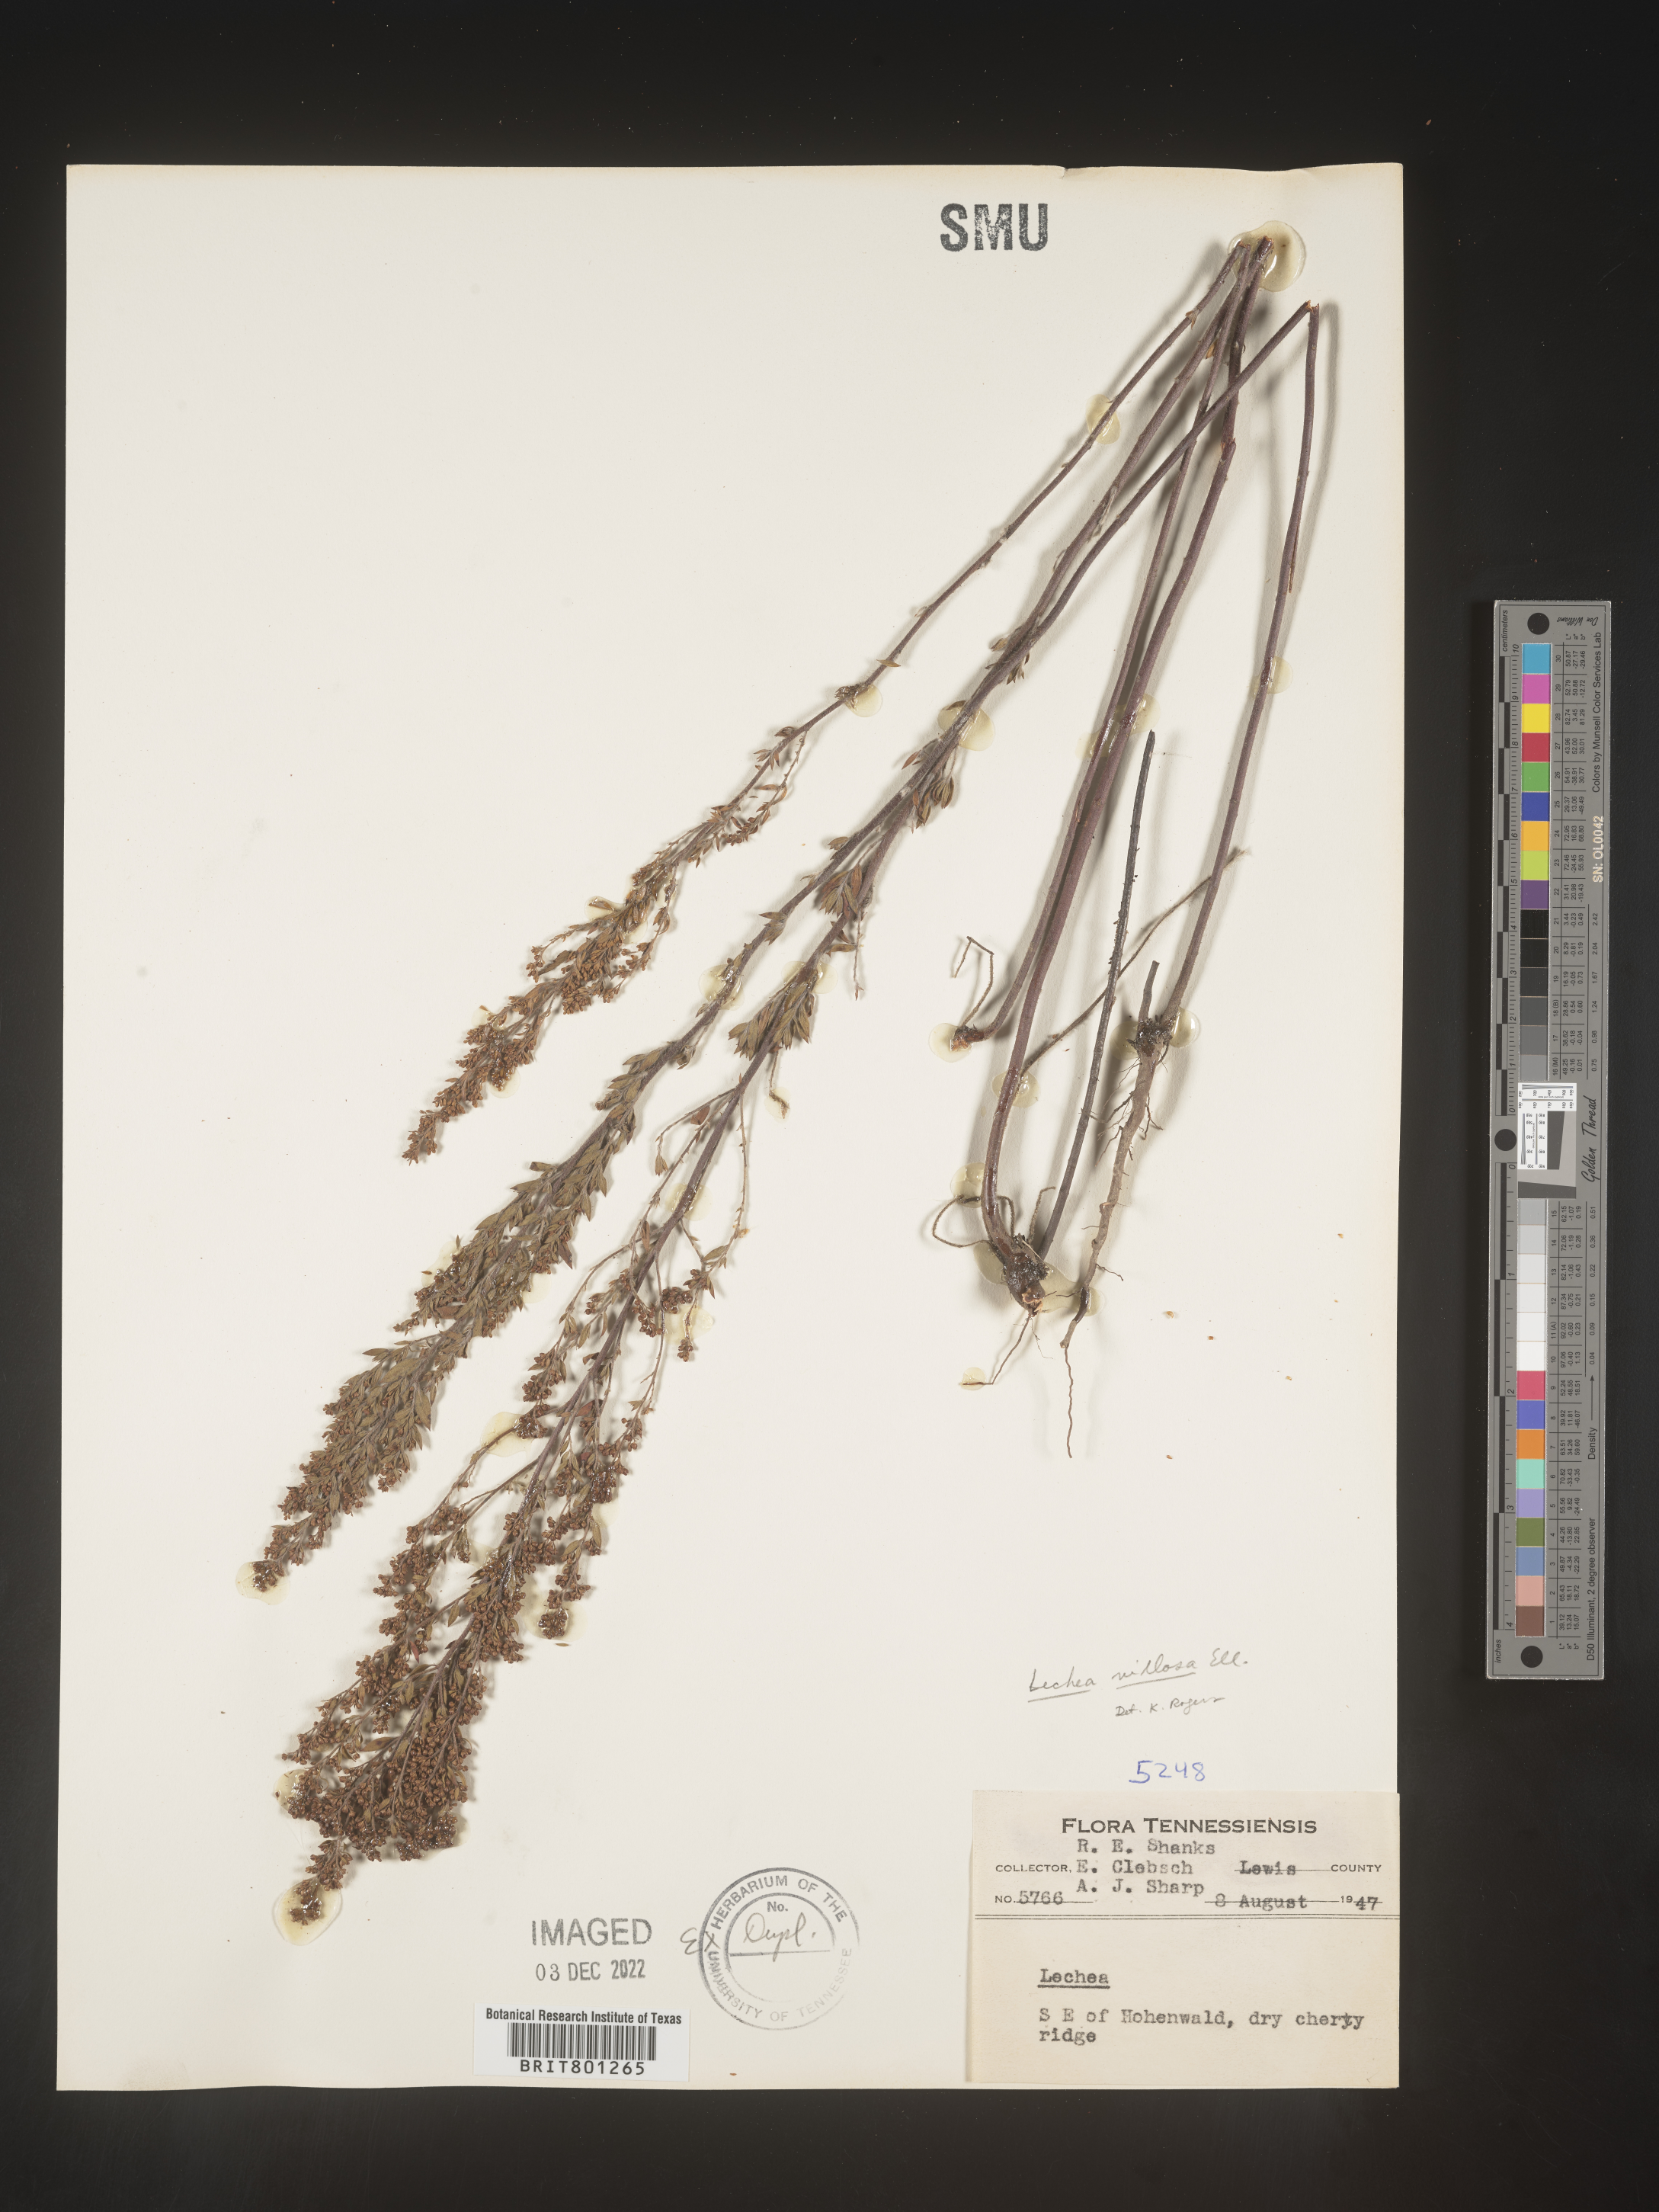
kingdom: Plantae
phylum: Tracheophyta
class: Magnoliopsida
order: Malvales
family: Cistaceae
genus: Lechea
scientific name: Lechea mucronata
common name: Hairy pinweed
